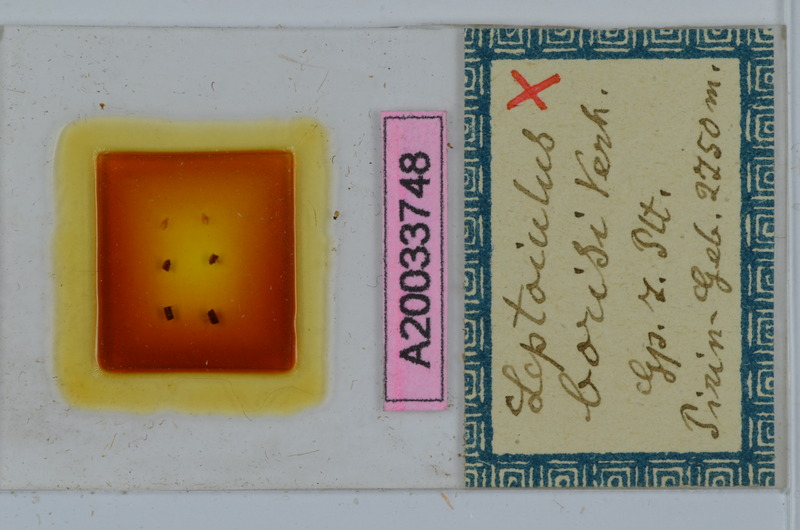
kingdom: Animalia
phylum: Arthropoda
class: Diplopoda
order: Julida
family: Julidae
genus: Leptoiulus
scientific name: Leptoiulus borisi
